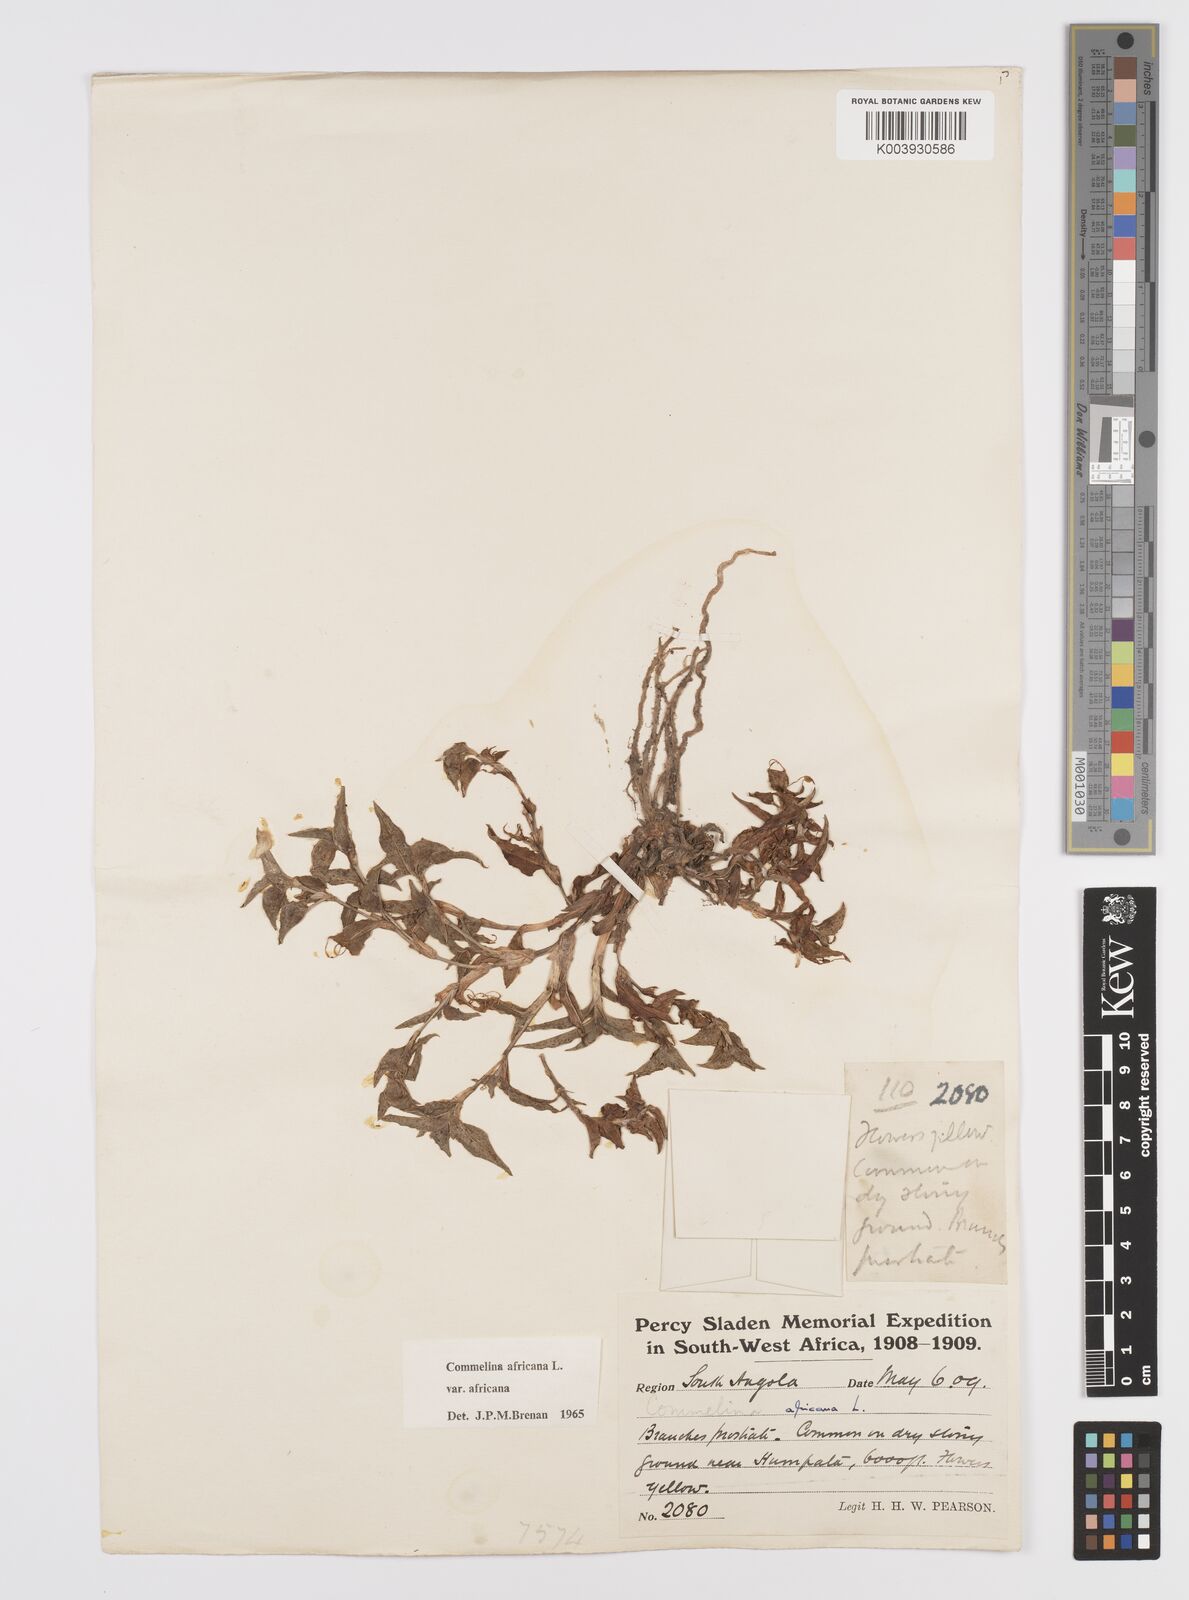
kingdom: Plantae
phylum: Tracheophyta
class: Liliopsida
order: Commelinales
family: Commelinaceae
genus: Commelina
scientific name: Commelina africana
